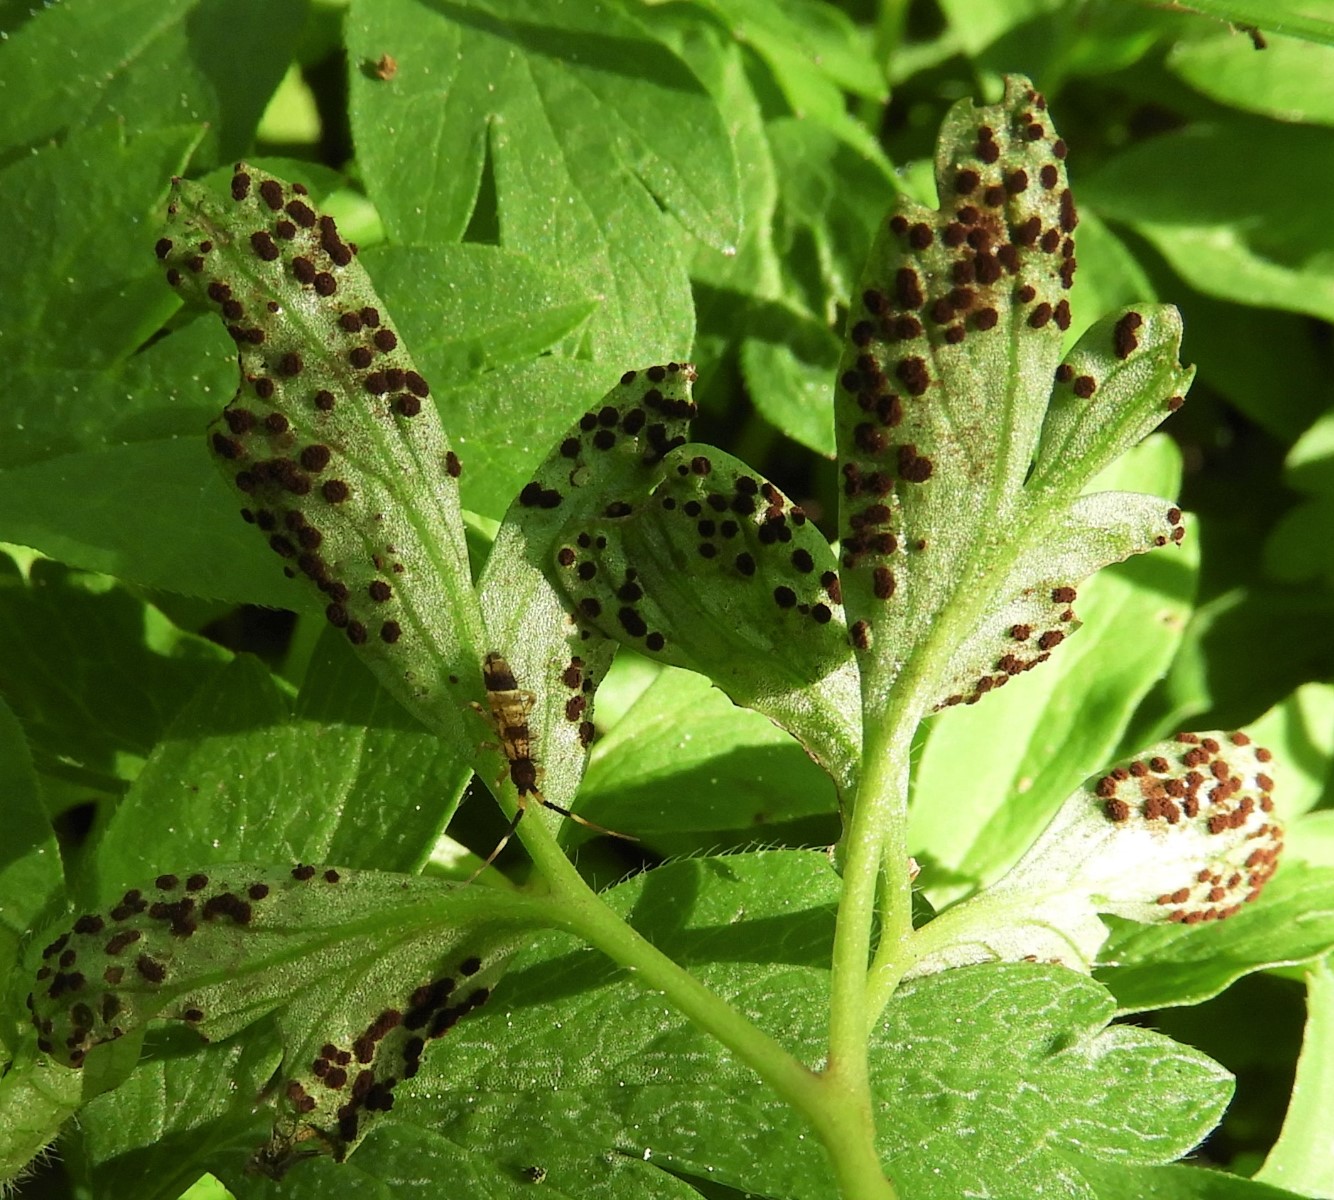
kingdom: Fungi
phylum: Basidiomycota
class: Pucciniomycetes
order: Pucciniales
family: Tranzscheliaceae
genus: Tranzschelia
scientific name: Tranzschelia anemones
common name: anemone-knæksporerust
